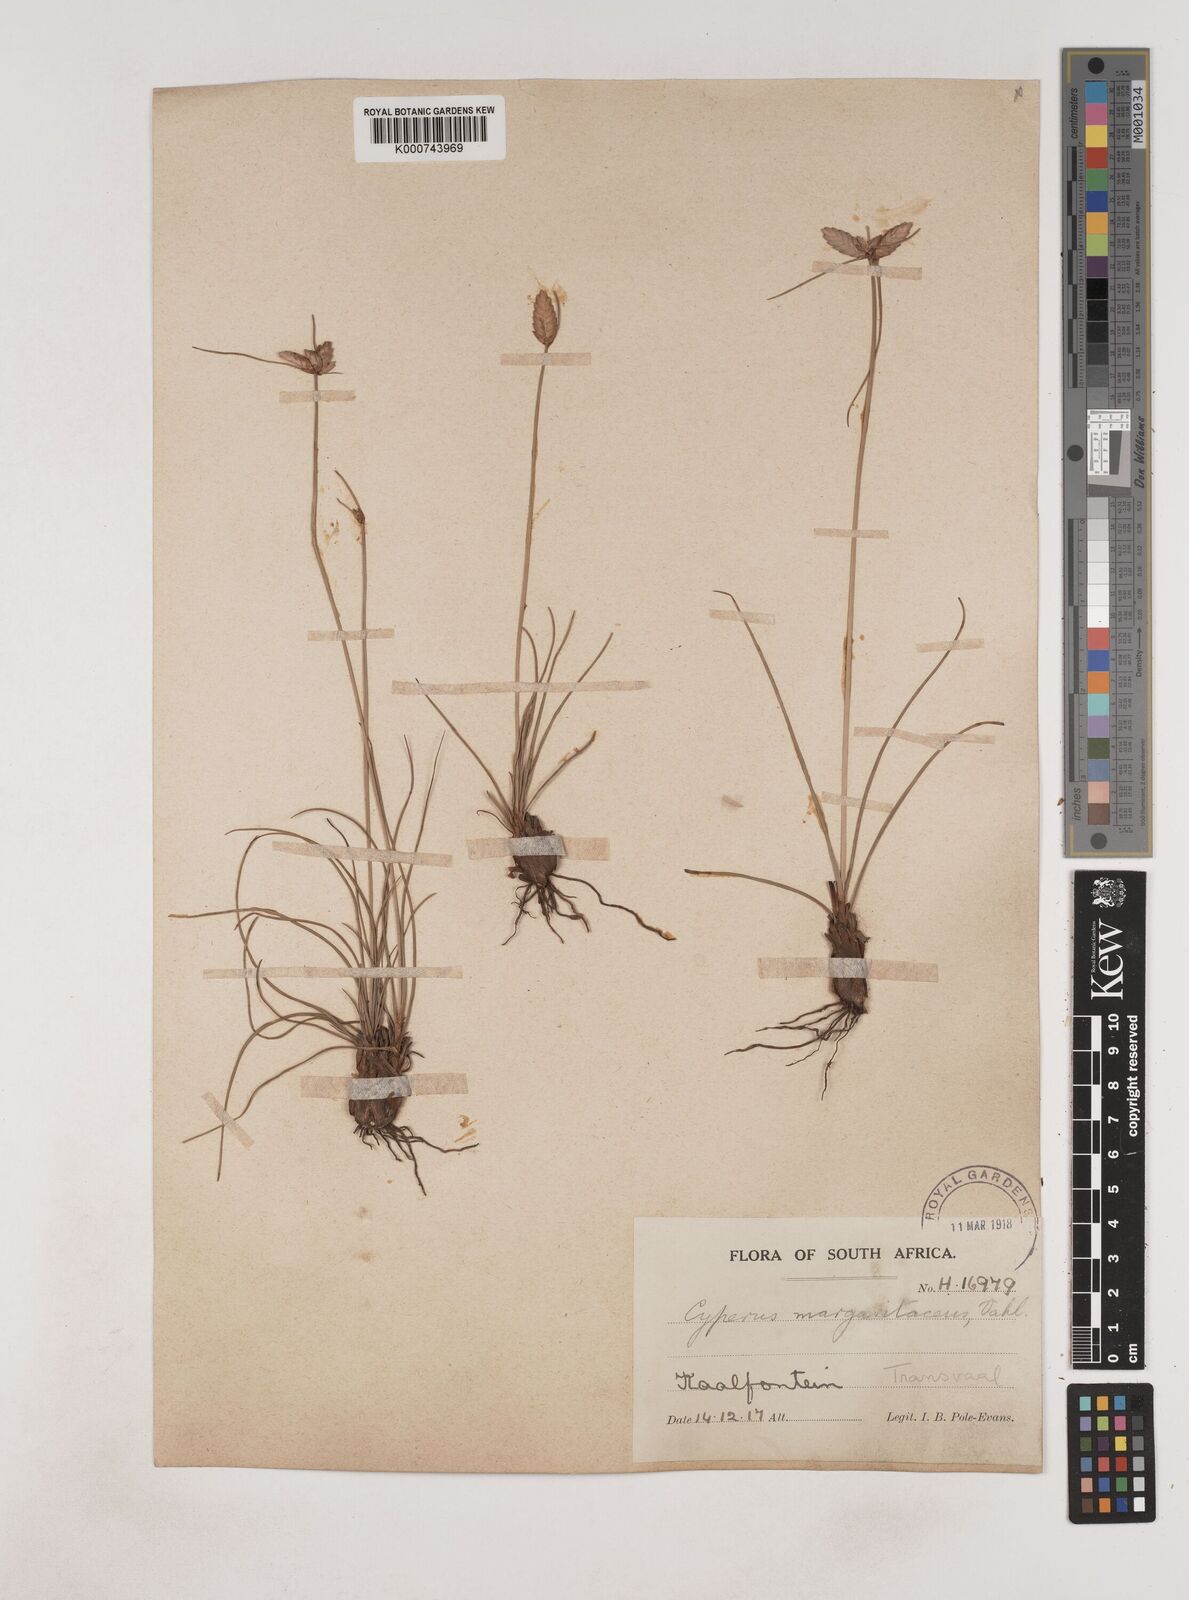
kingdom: Plantae
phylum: Tracheophyta
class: Liliopsida
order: Poales
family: Cyperaceae
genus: Cyperus
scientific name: Cyperus margaritaceus
